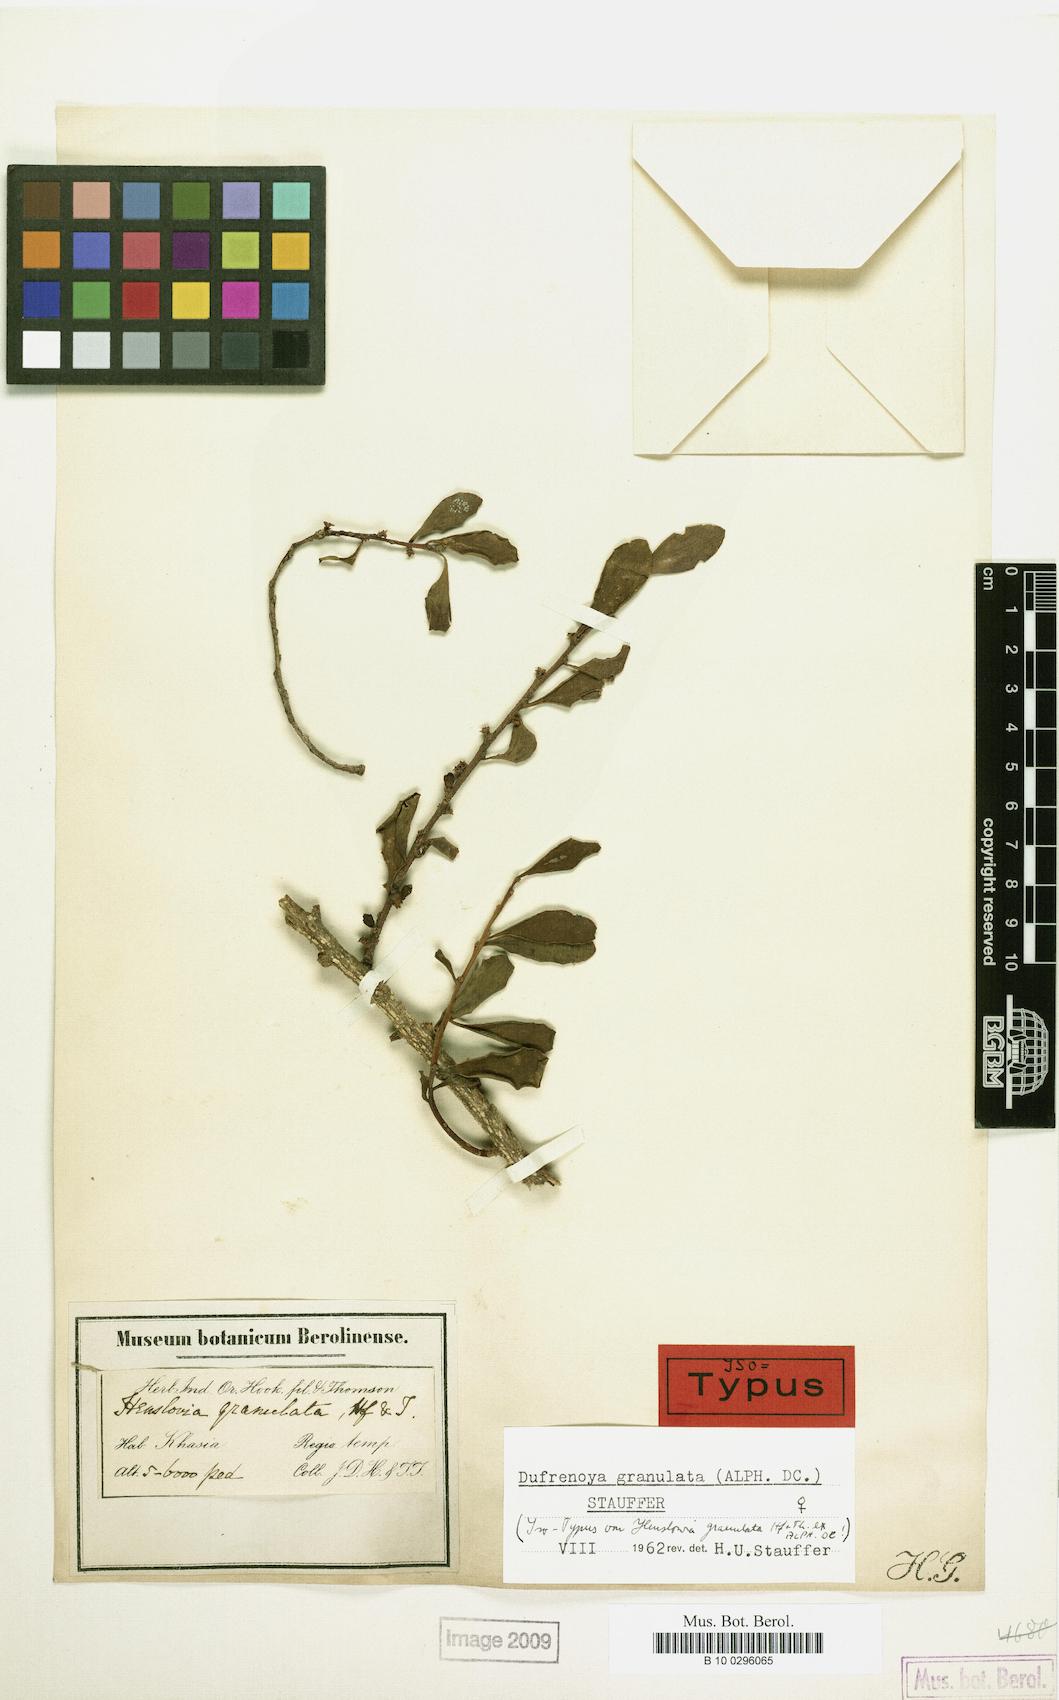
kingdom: Plantae
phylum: Tracheophyta
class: Magnoliopsida
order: Santalales
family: Amphorogynaceae
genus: Dendrotrophe
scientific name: Dendrotrophe granulata
